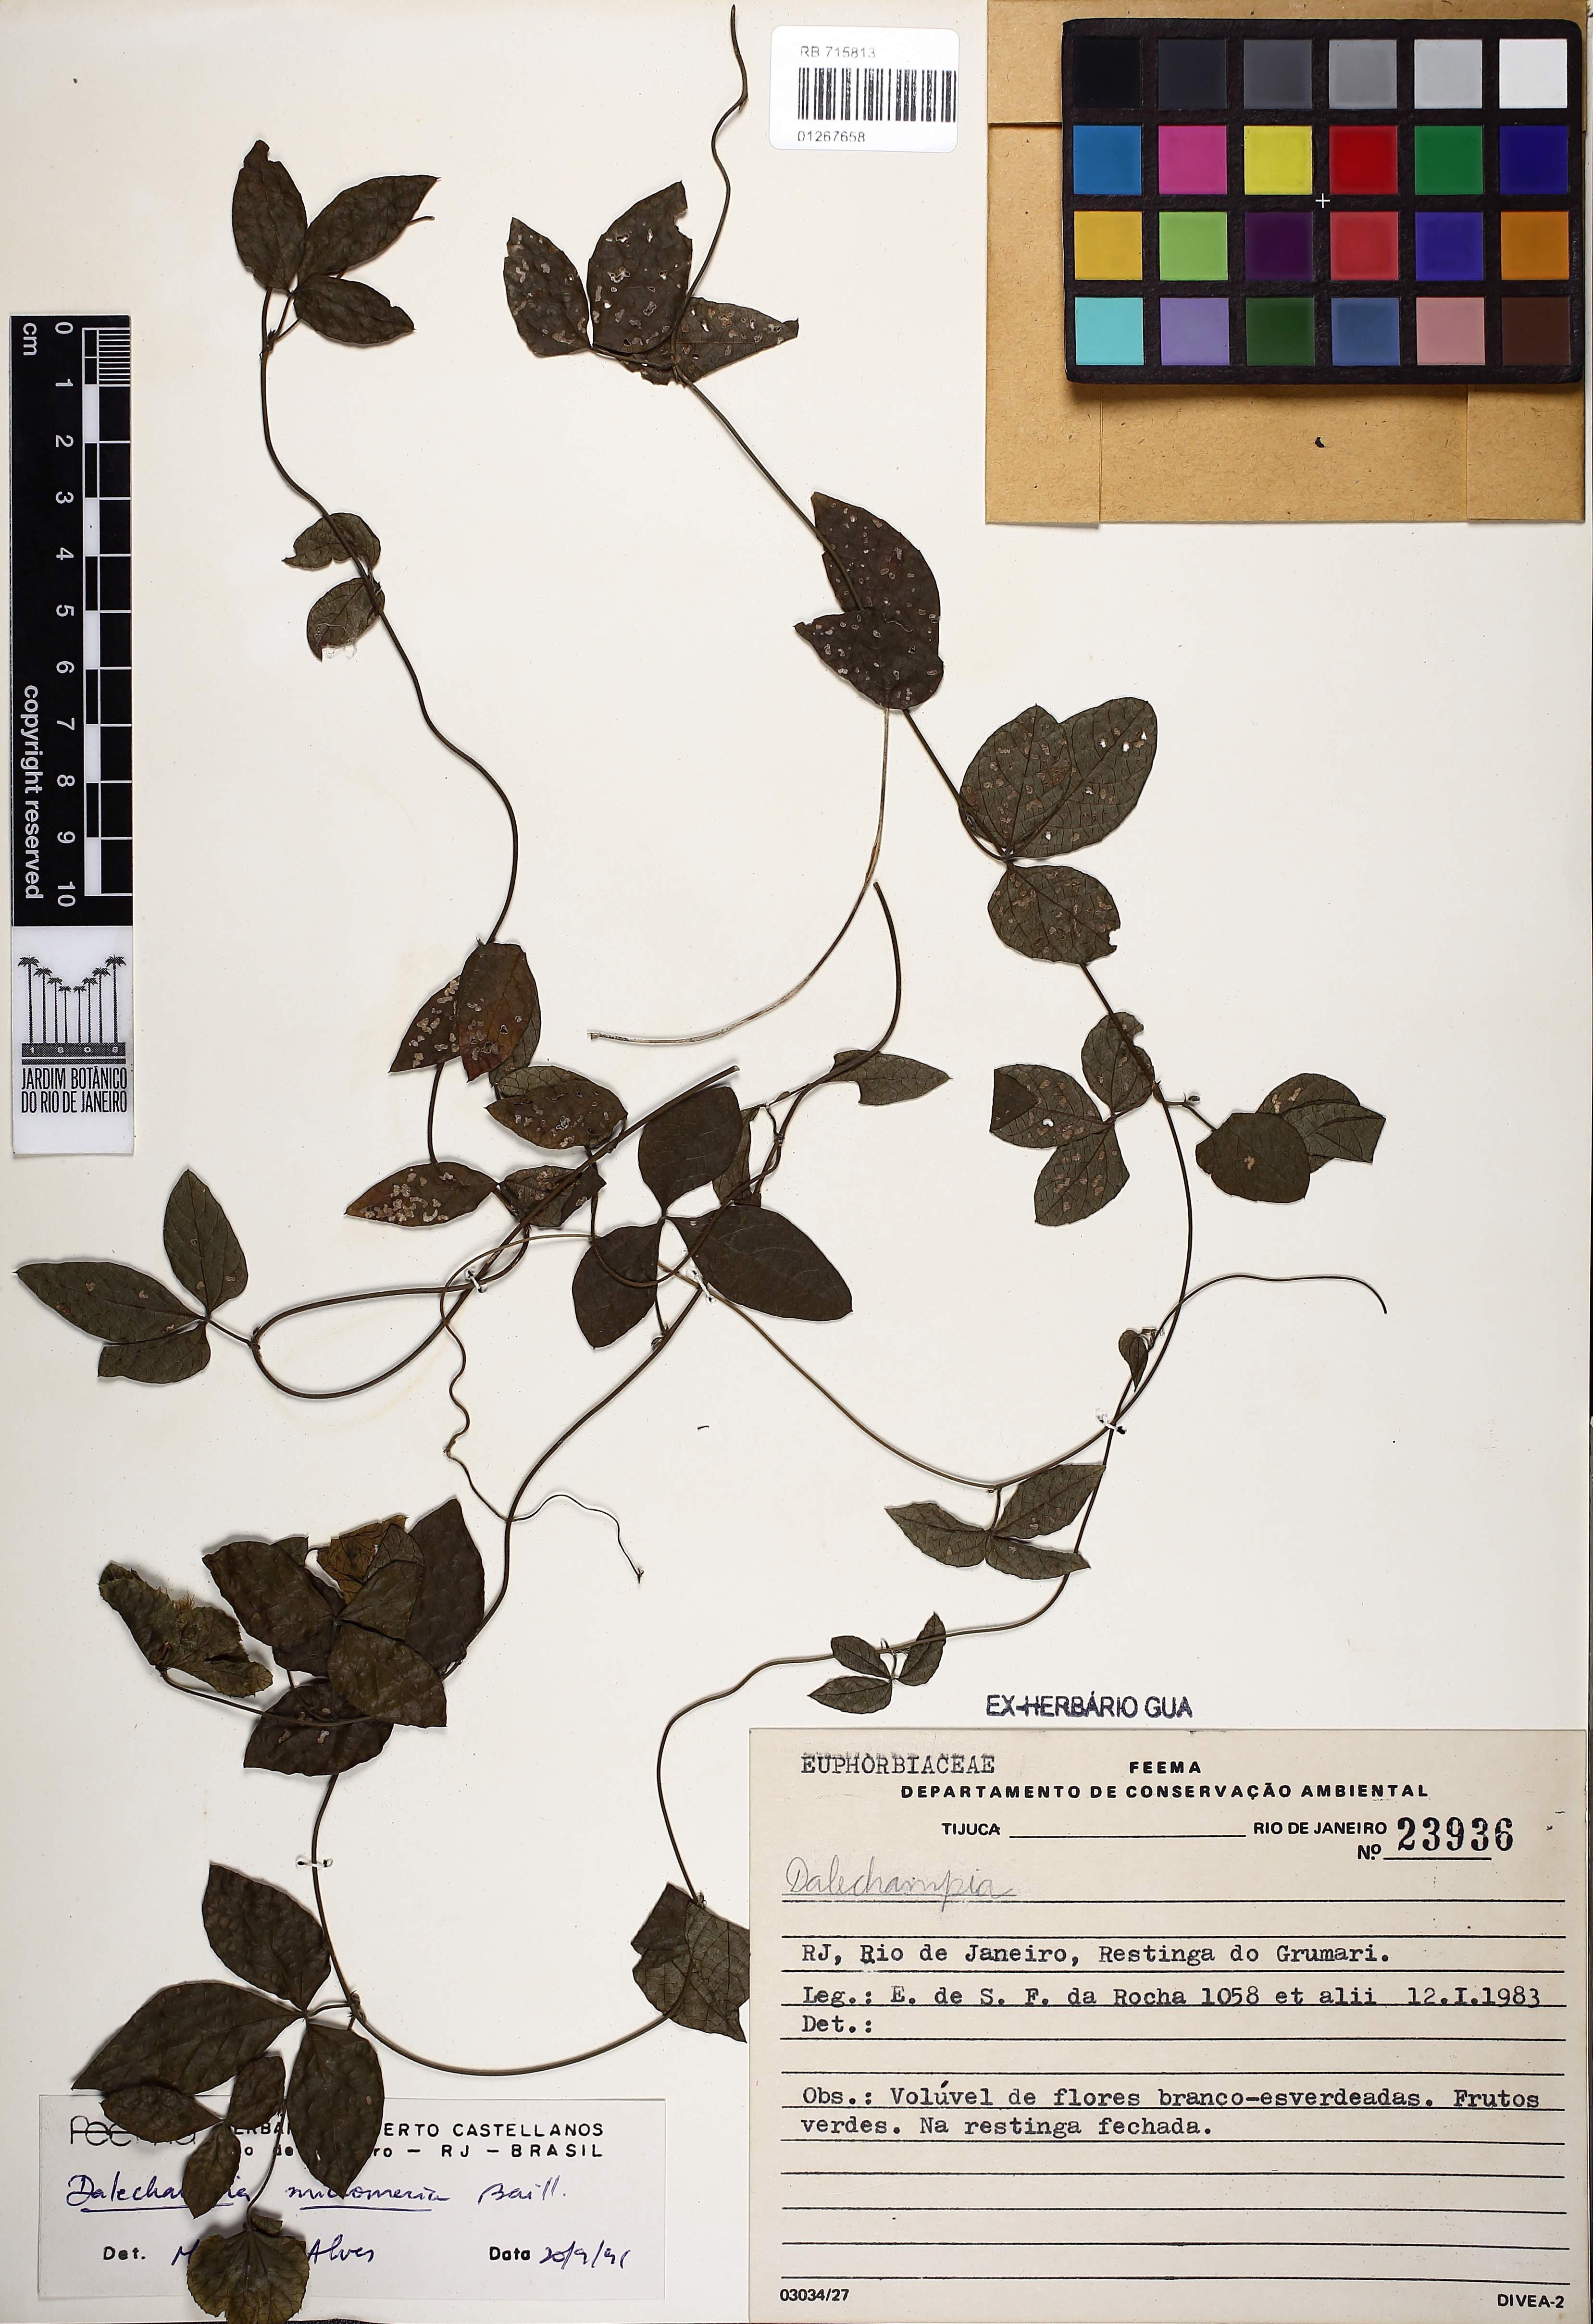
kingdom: Plantae
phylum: Tracheophyta
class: Magnoliopsida
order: Malpighiales
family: Euphorbiaceae
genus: Dalechampia
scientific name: Dalechampia micromeria
